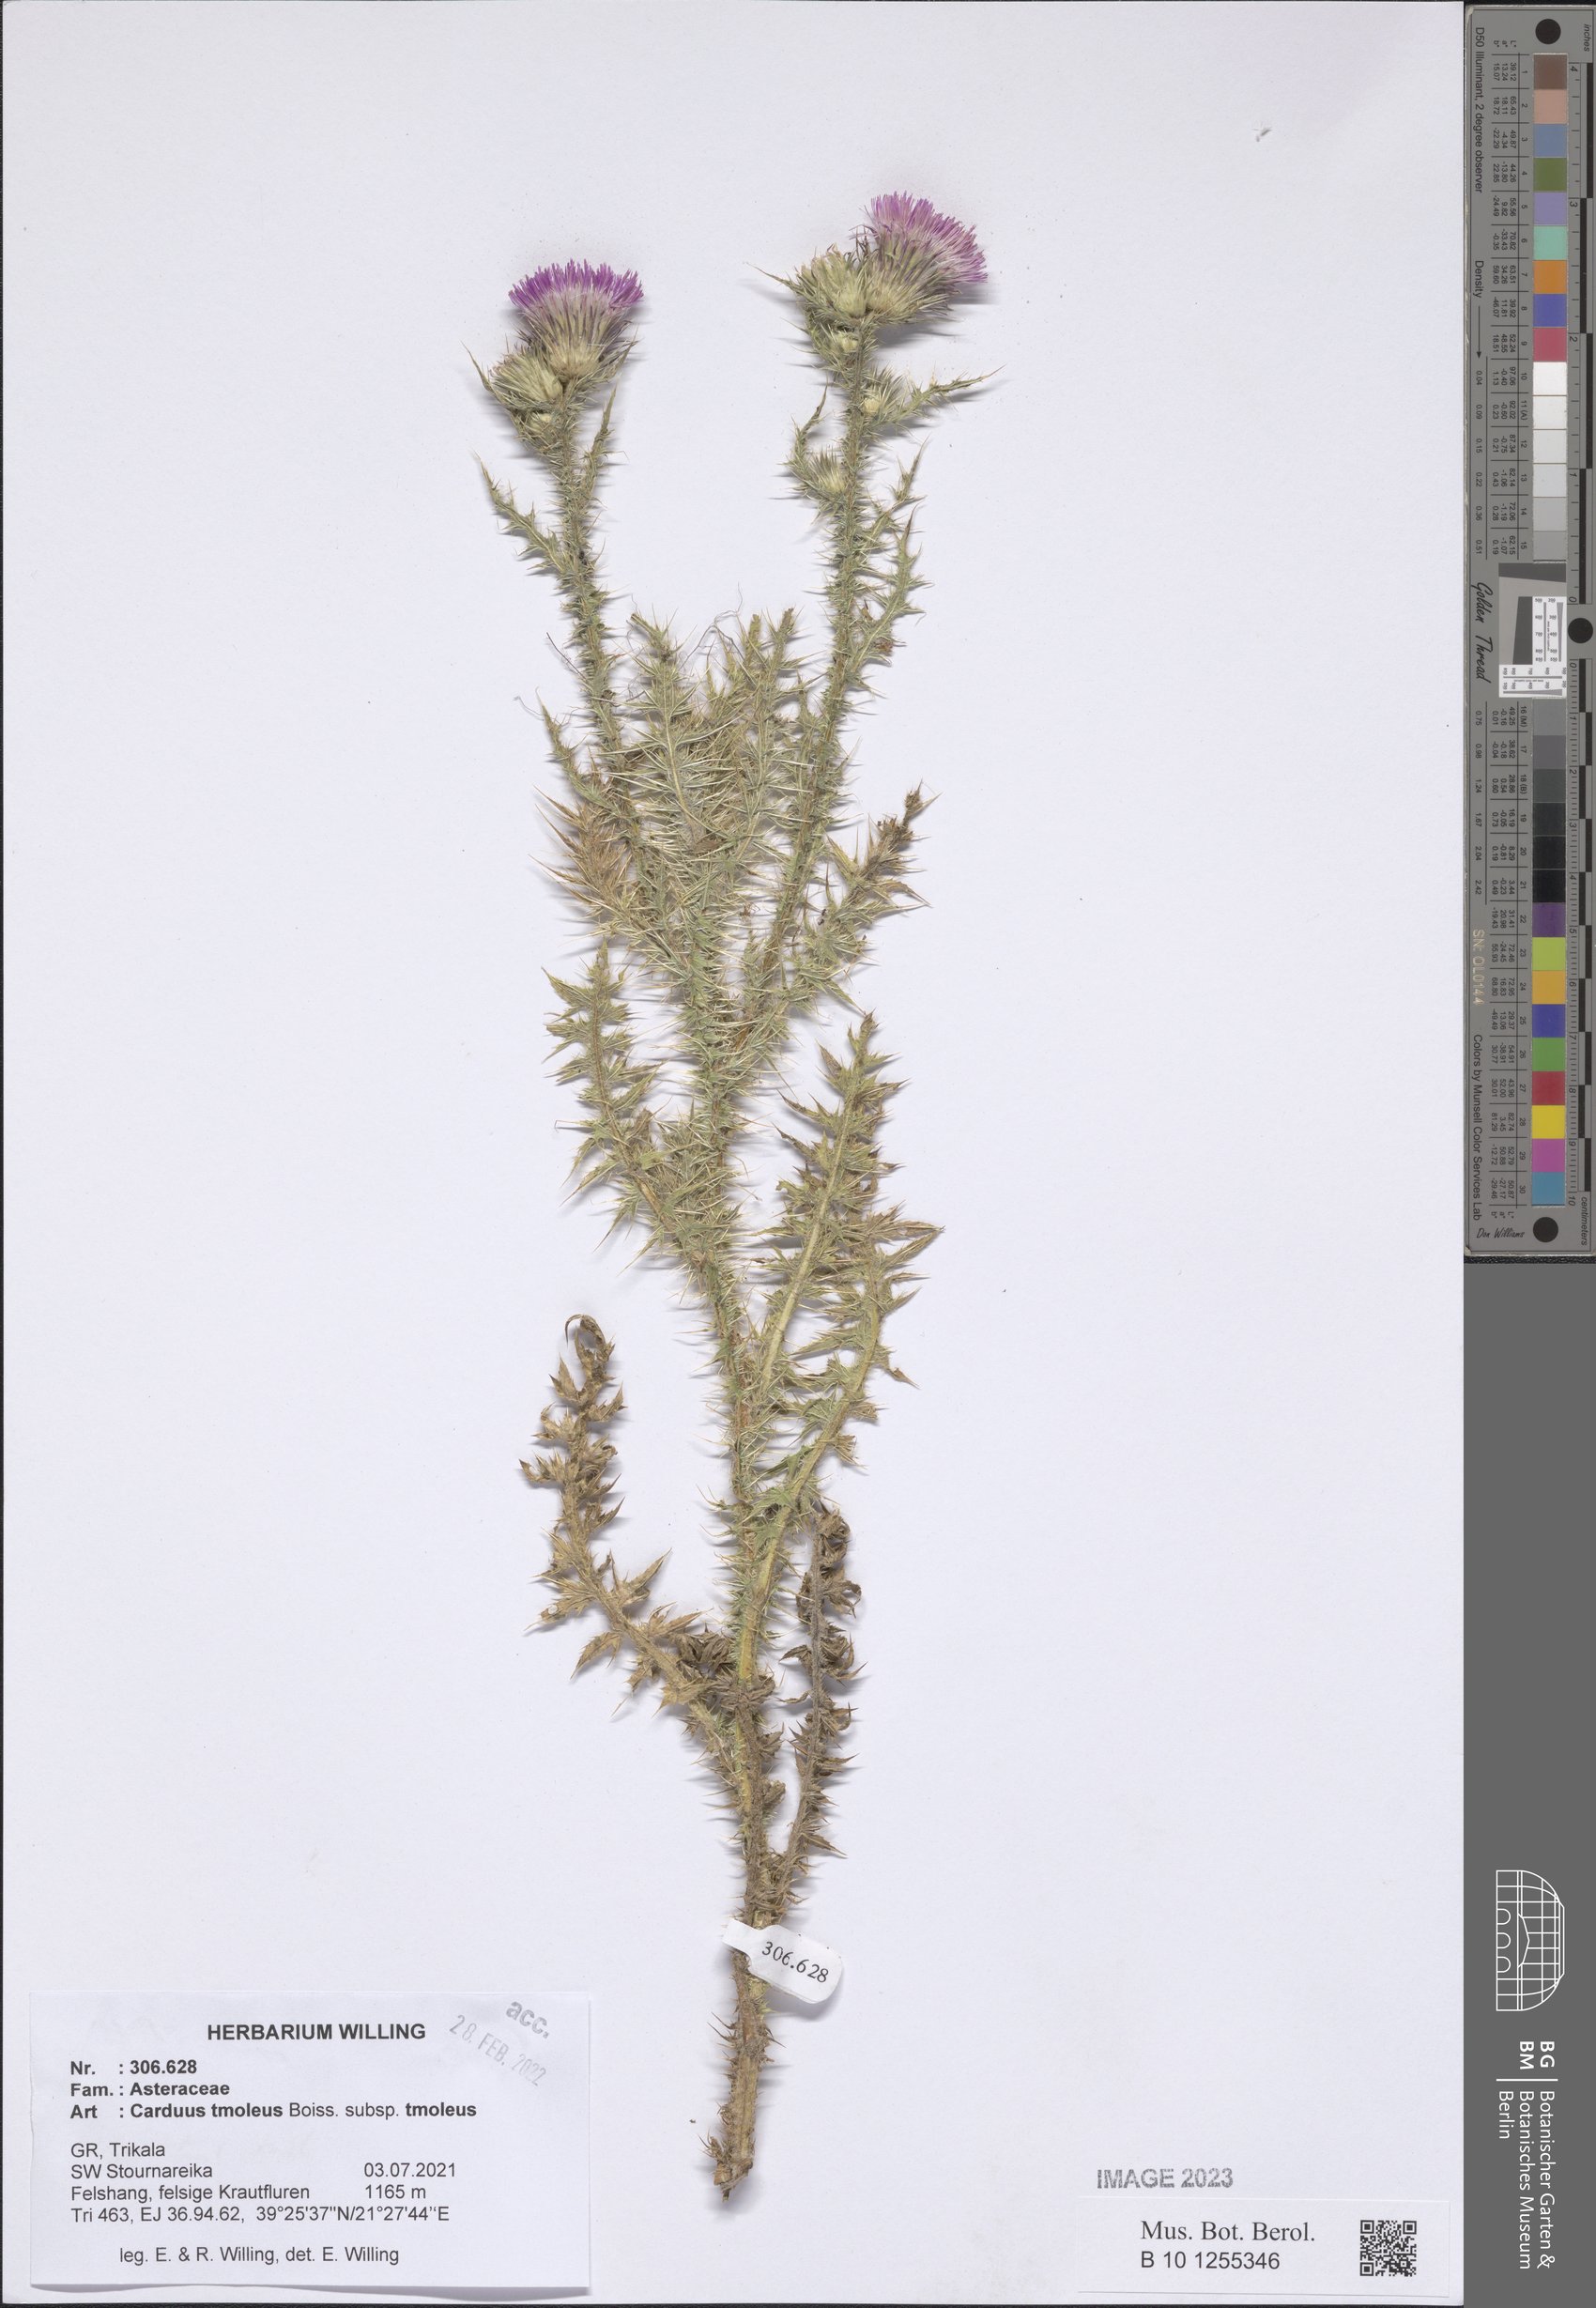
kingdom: Plantae
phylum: Tracheophyta
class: Magnoliopsida
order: Asterales
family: Asteraceae
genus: Carduus
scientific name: Carduus tmoleus
